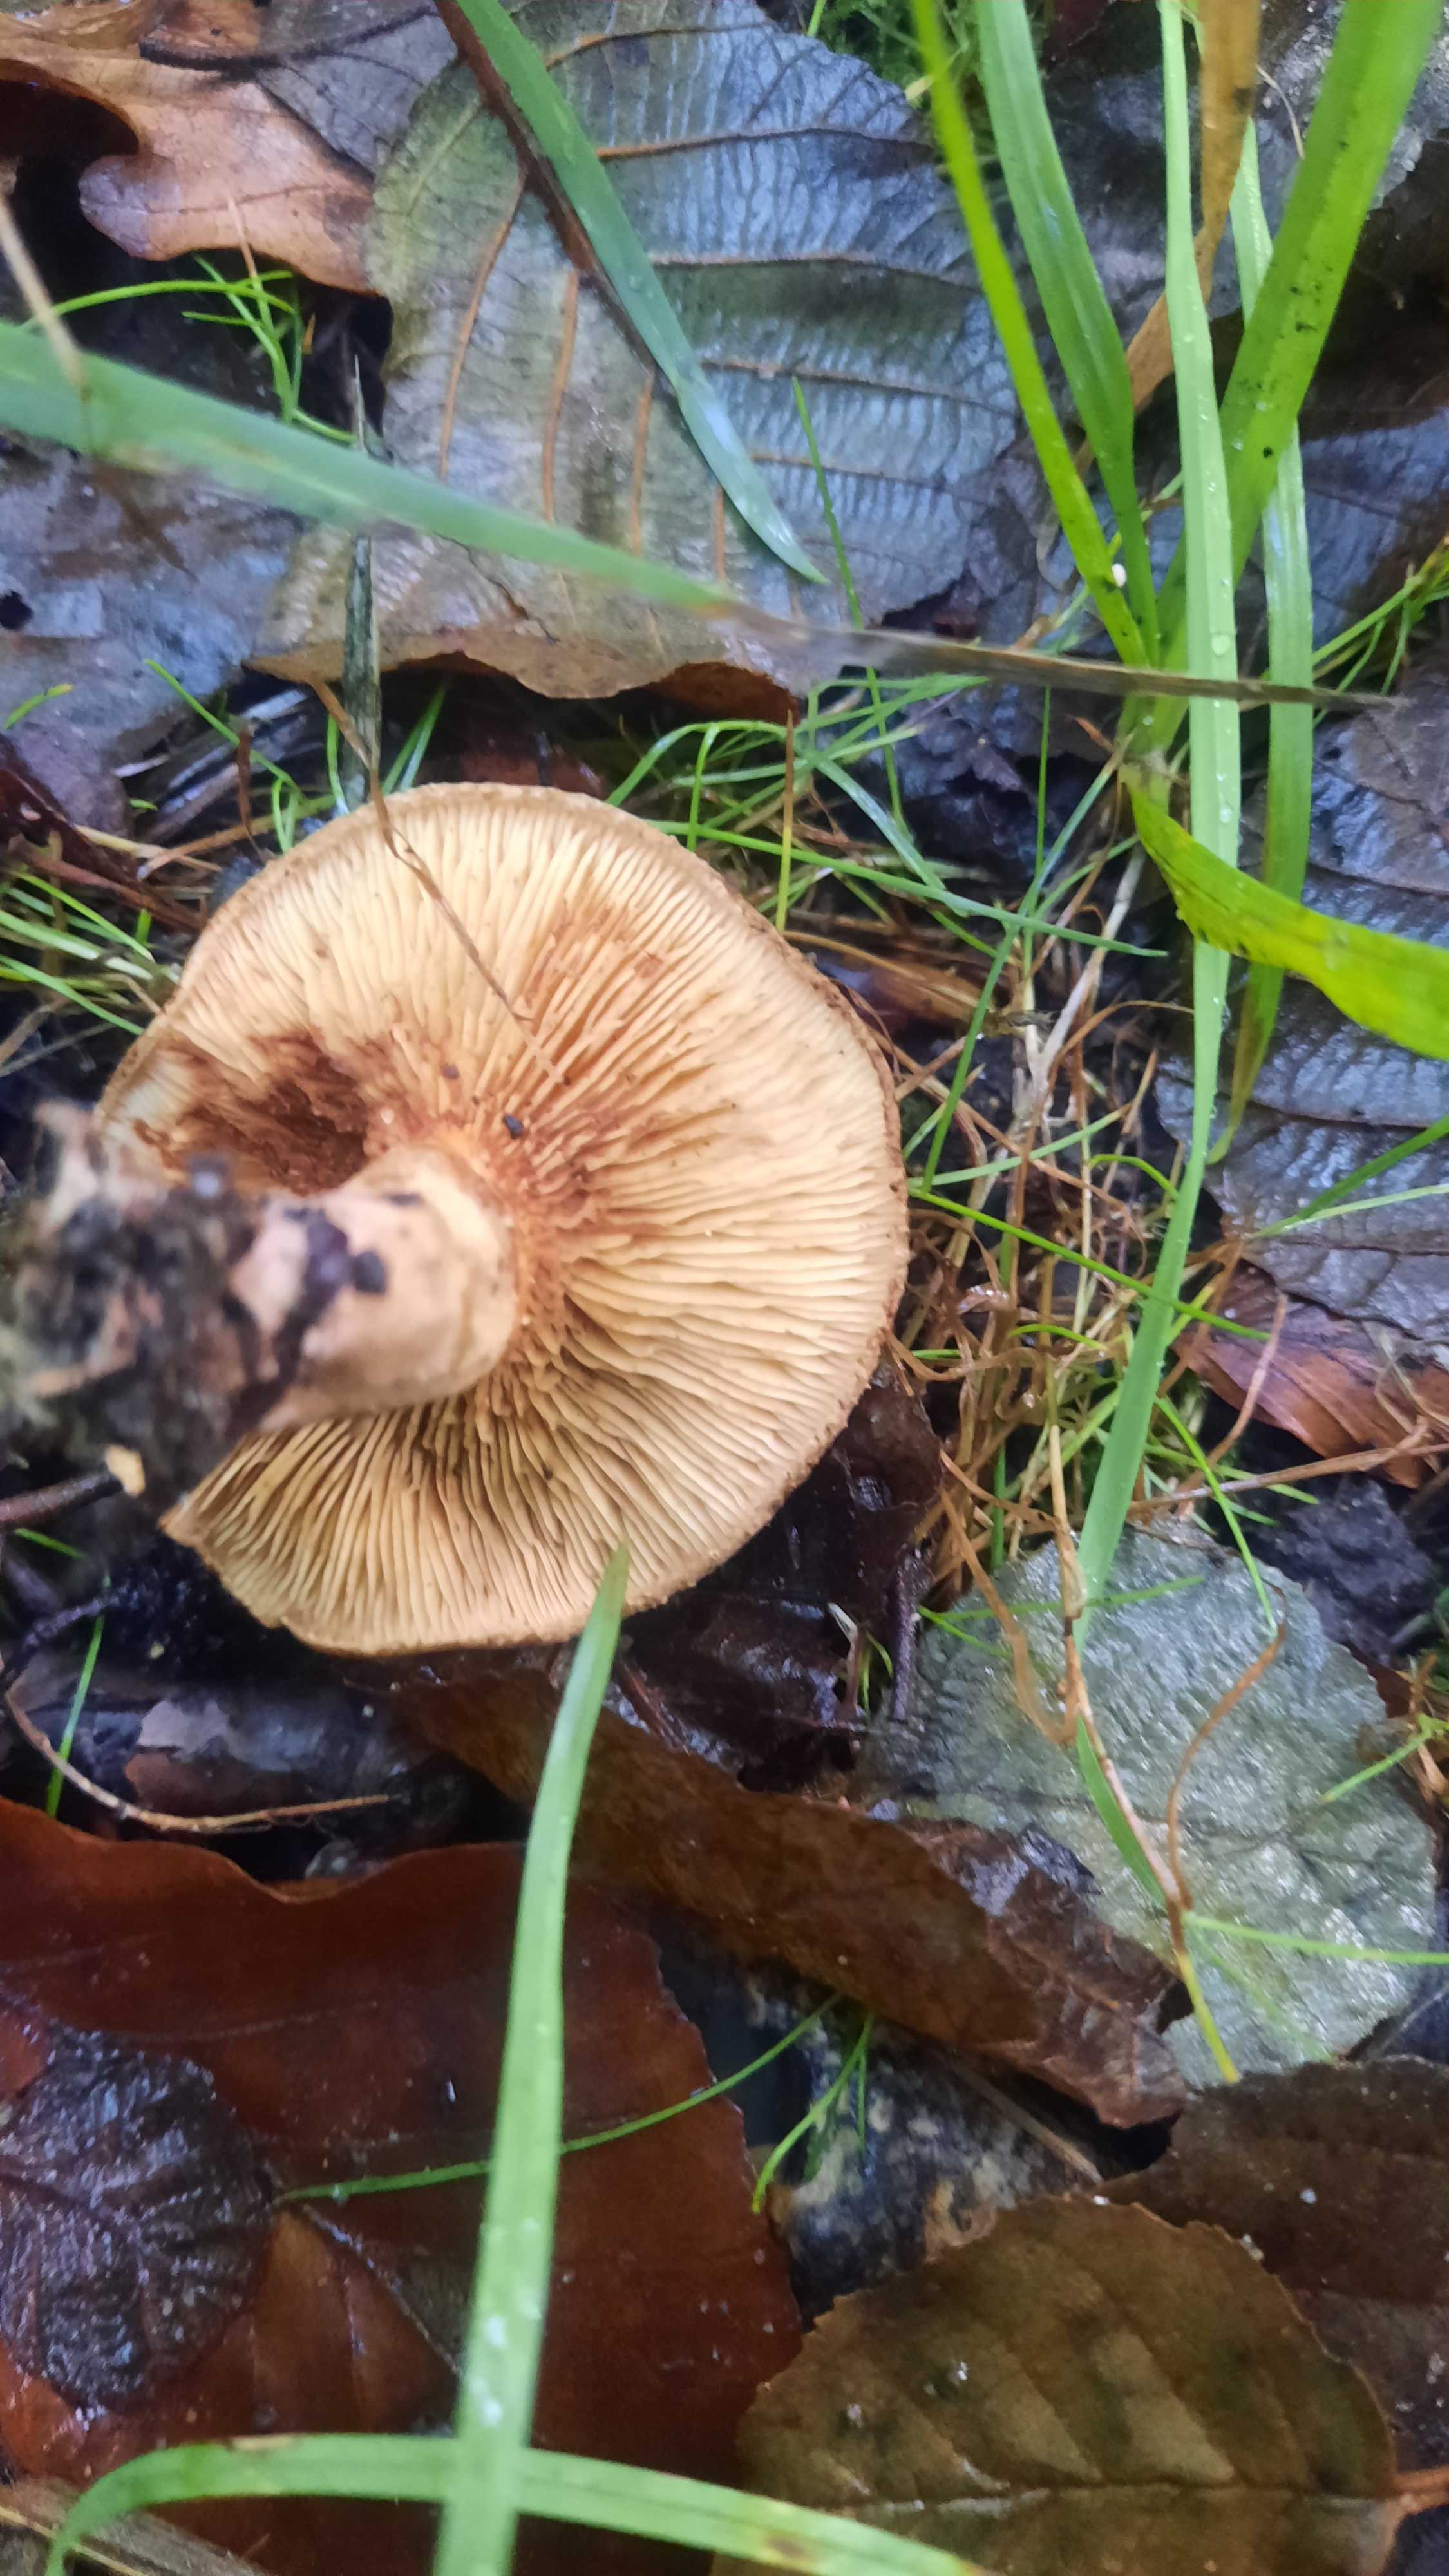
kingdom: Fungi
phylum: Basidiomycota
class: Agaricomycetes
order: Boletales
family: Paxillaceae
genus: Paxillus
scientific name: Paxillus rubicundulus
